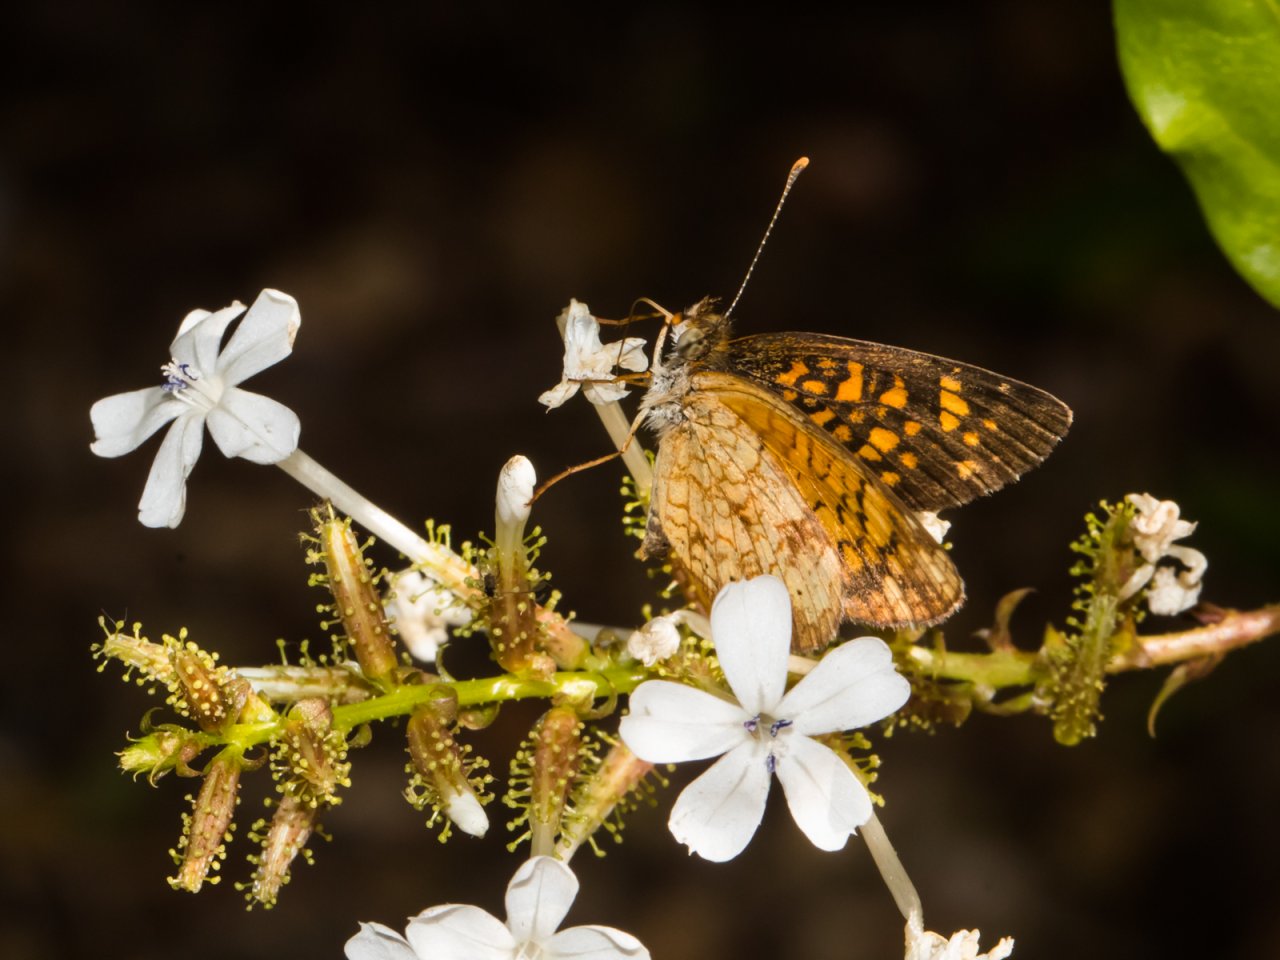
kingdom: Animalia
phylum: Arthropoda
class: Insecta
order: Lepidoptera
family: Nymphalidae
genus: Phyciodes
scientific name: Phyciodes vesta
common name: Vesta Crescent
